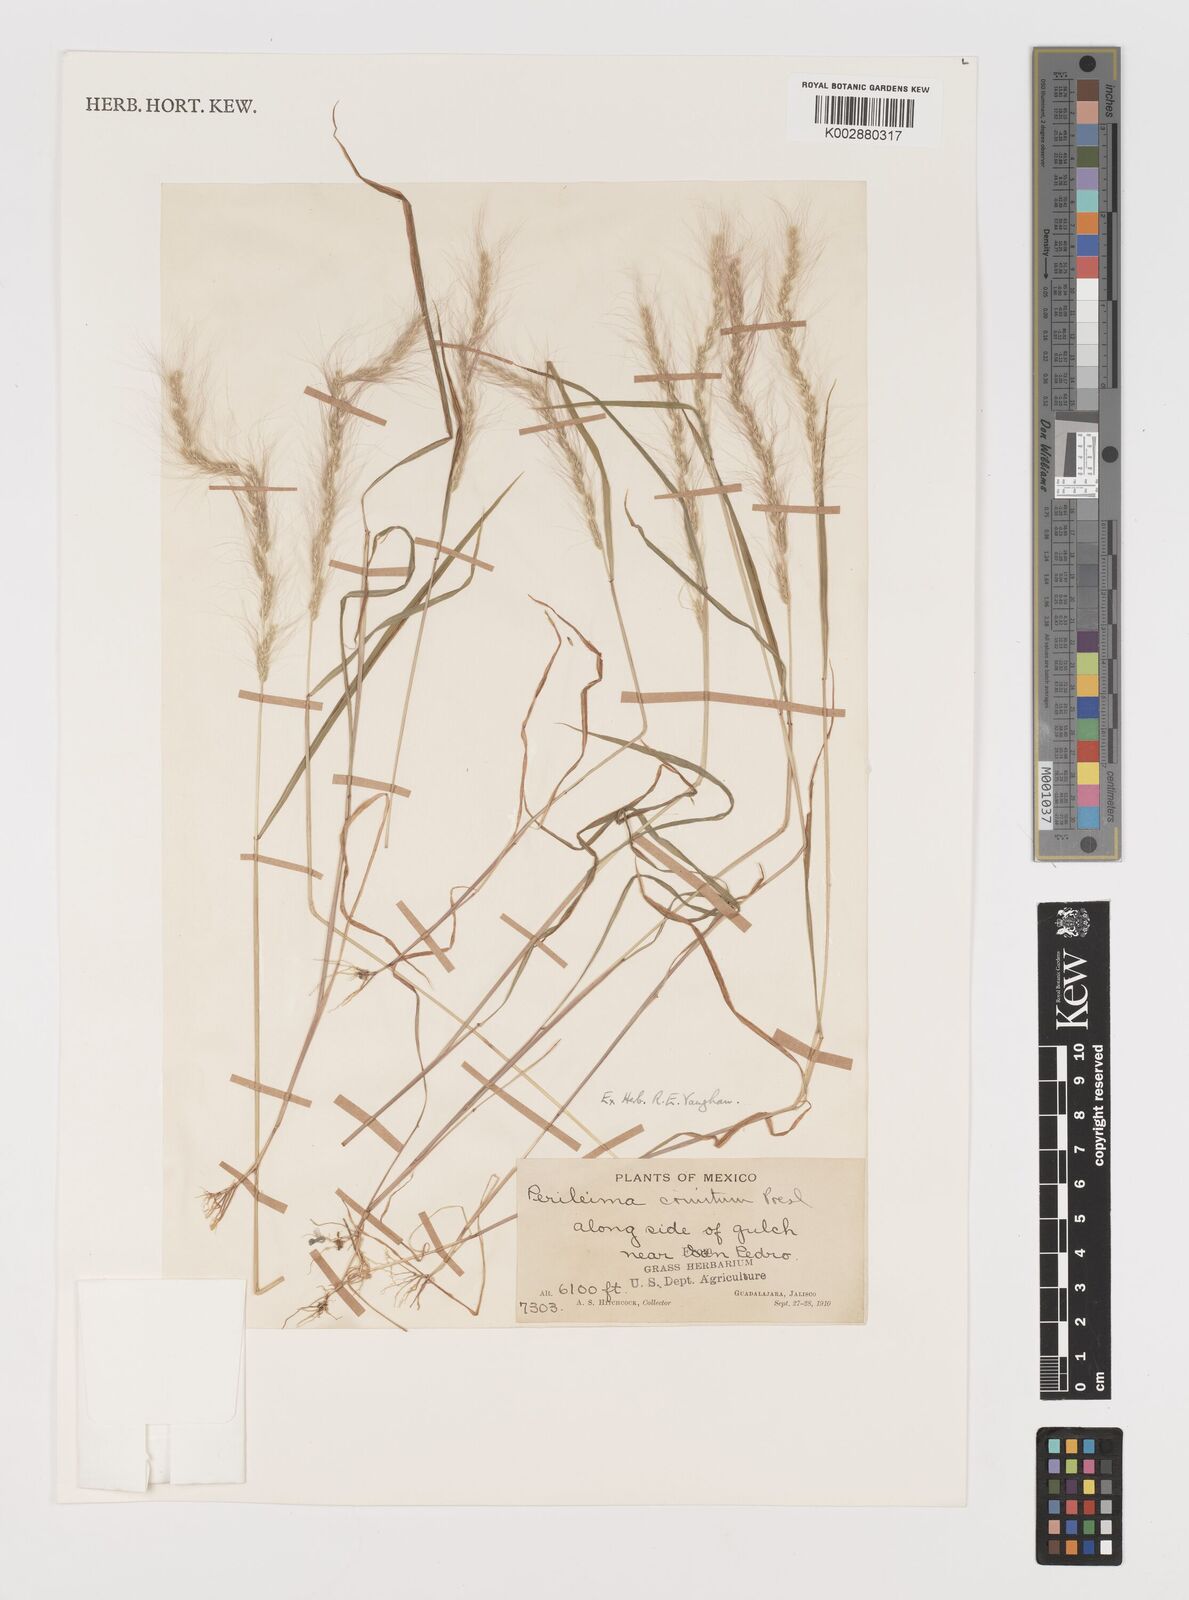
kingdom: Plantae
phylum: Tracheophyta
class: Liliopsida
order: Poales
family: Poaceae
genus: Muhlenbergia
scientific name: Muhlenbergia pereilema
